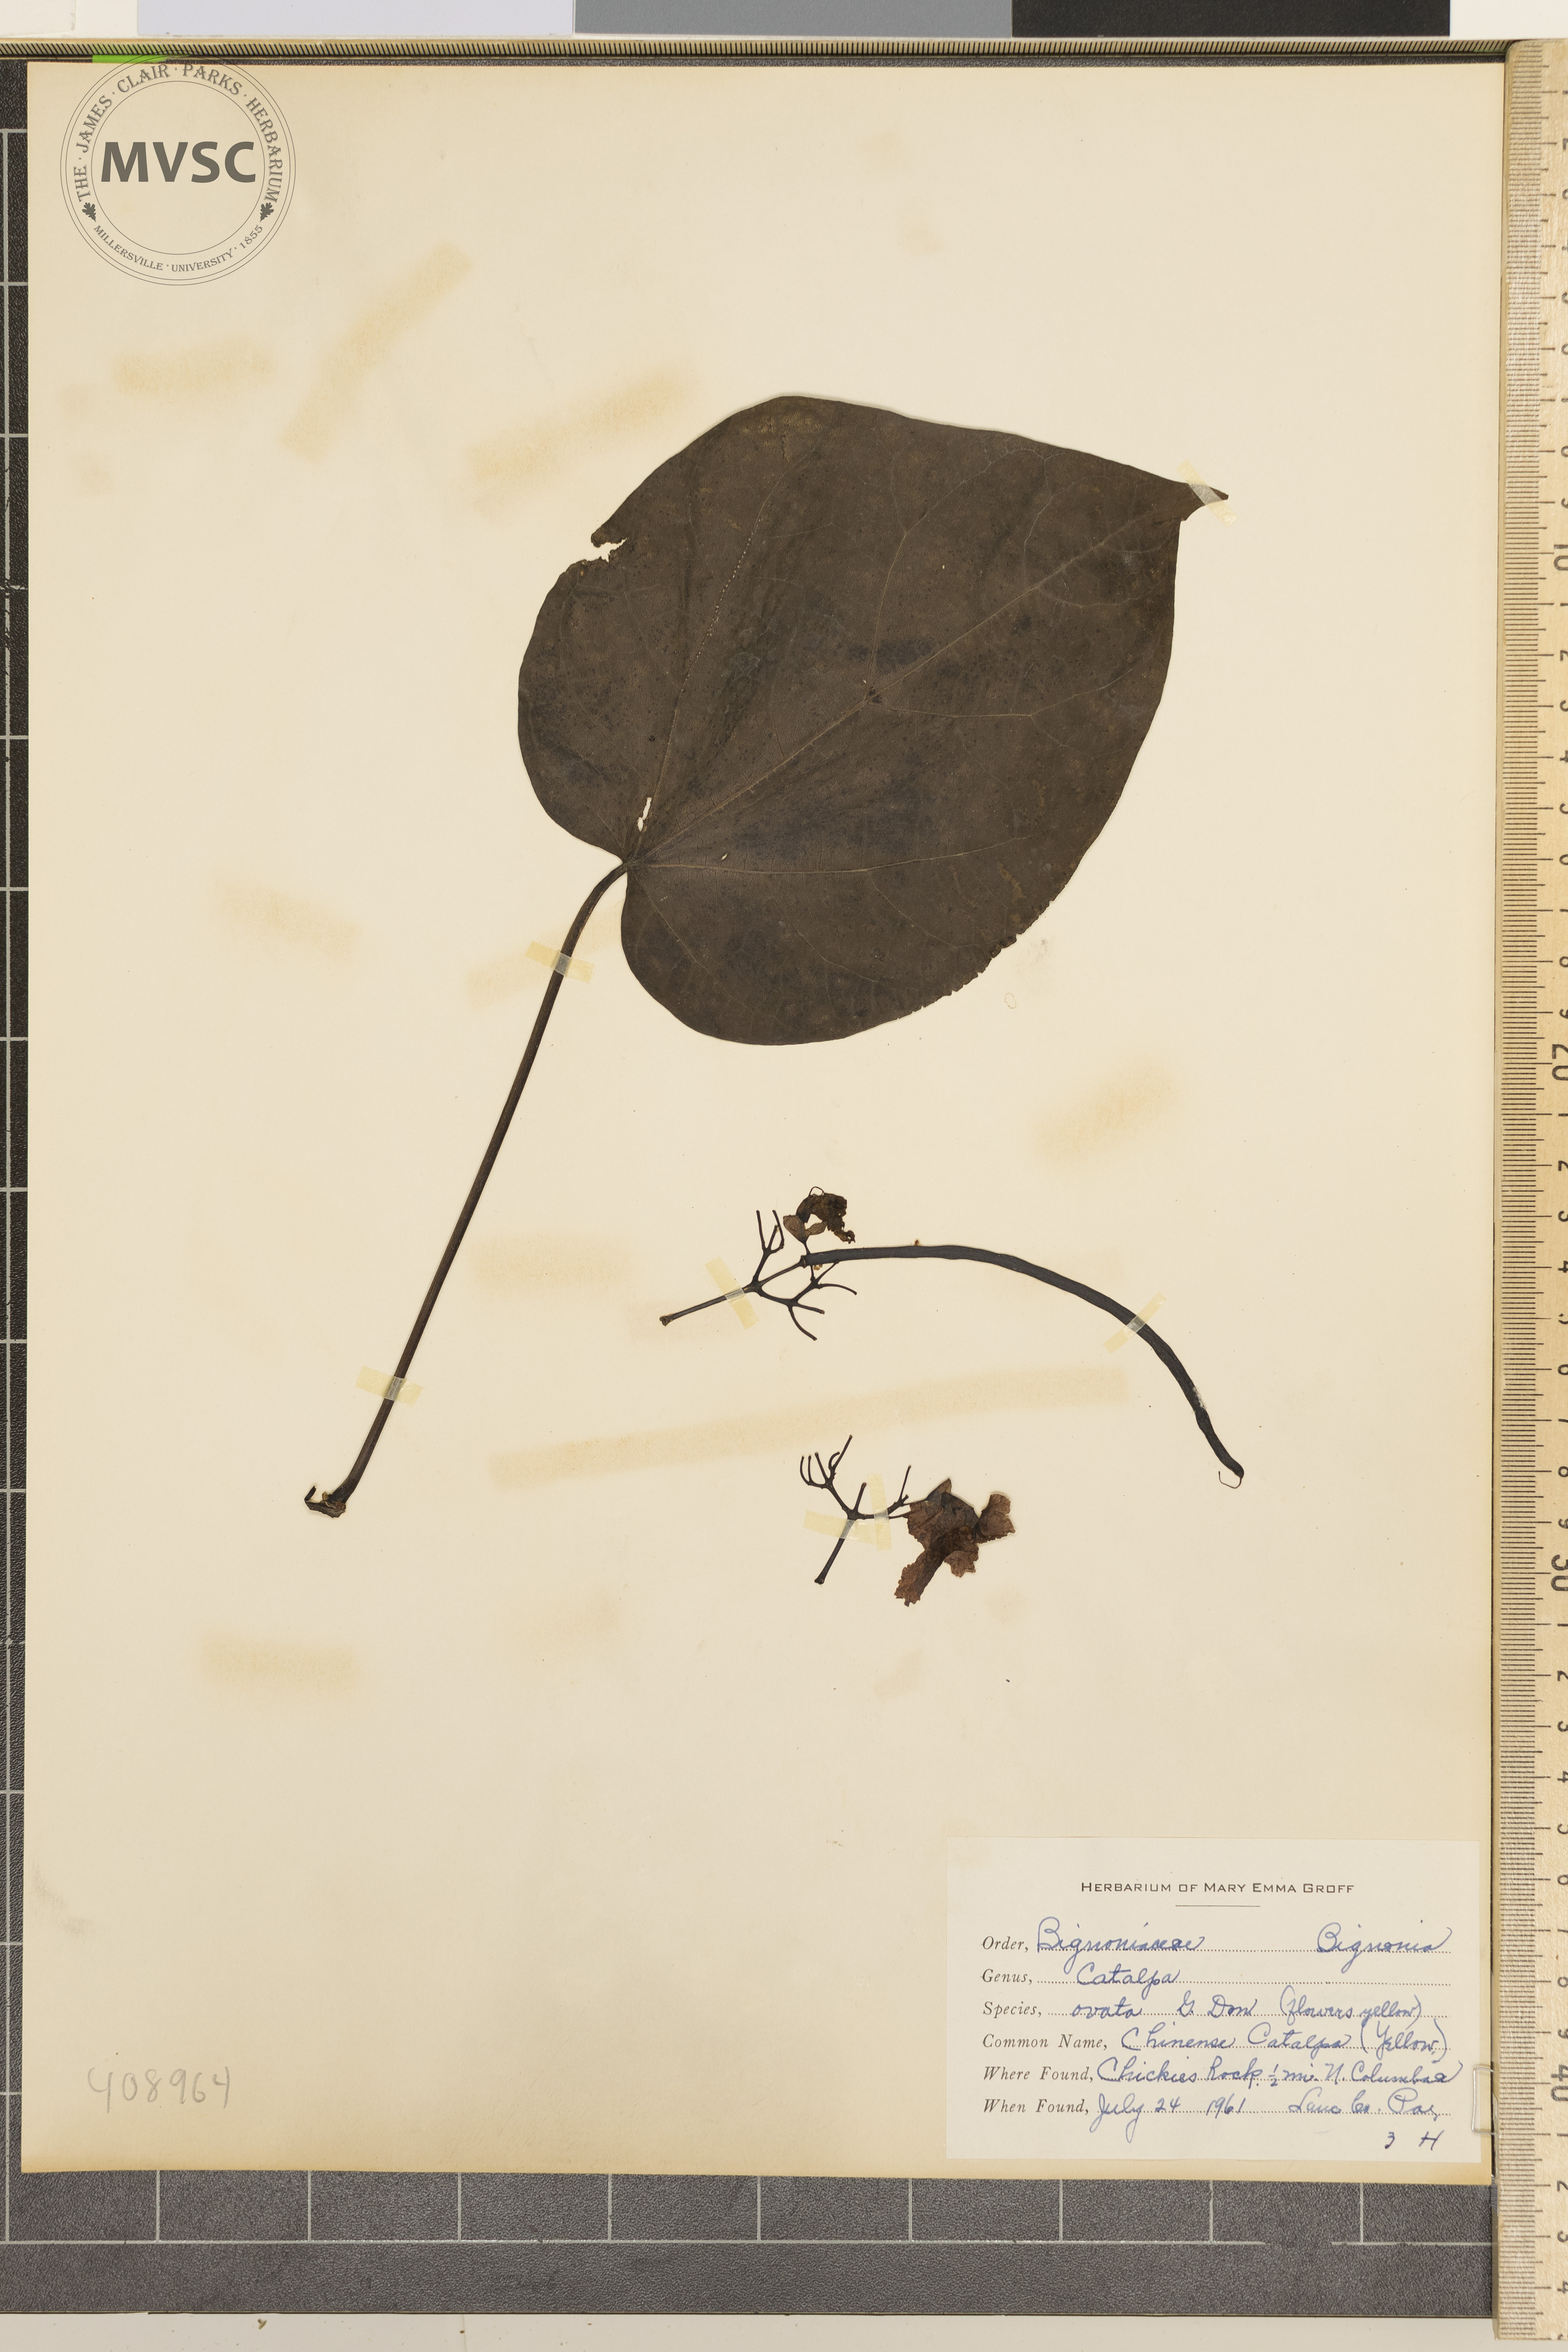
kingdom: Plantae
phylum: Tracheophyta
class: Magnoliopsida
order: Lamiales
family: Bignoniaceae
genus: Catalpa
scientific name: Catalpa ovata
